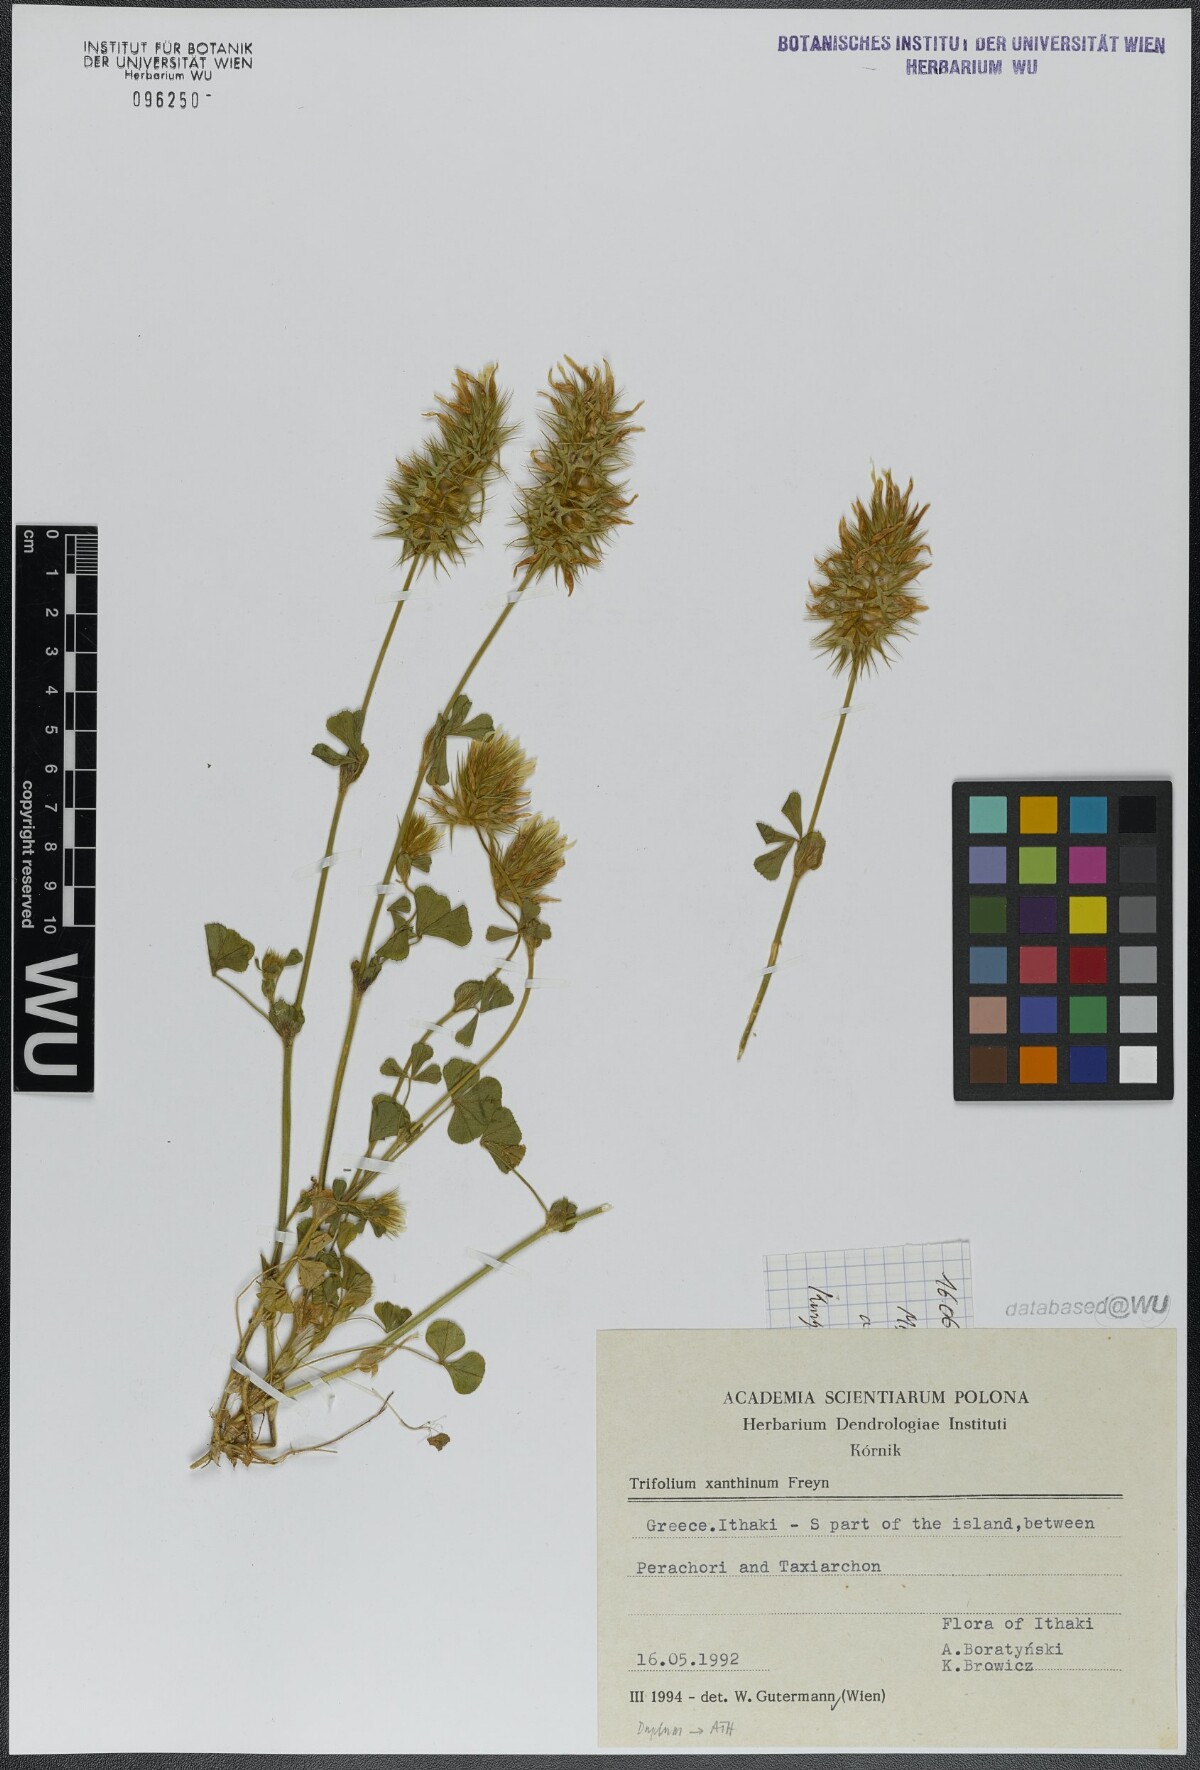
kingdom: Plantae
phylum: Tracheophyta
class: Magnoliopsida
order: Fabales
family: Fabaceae
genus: Trifolium
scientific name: Trifolium xanthinum
